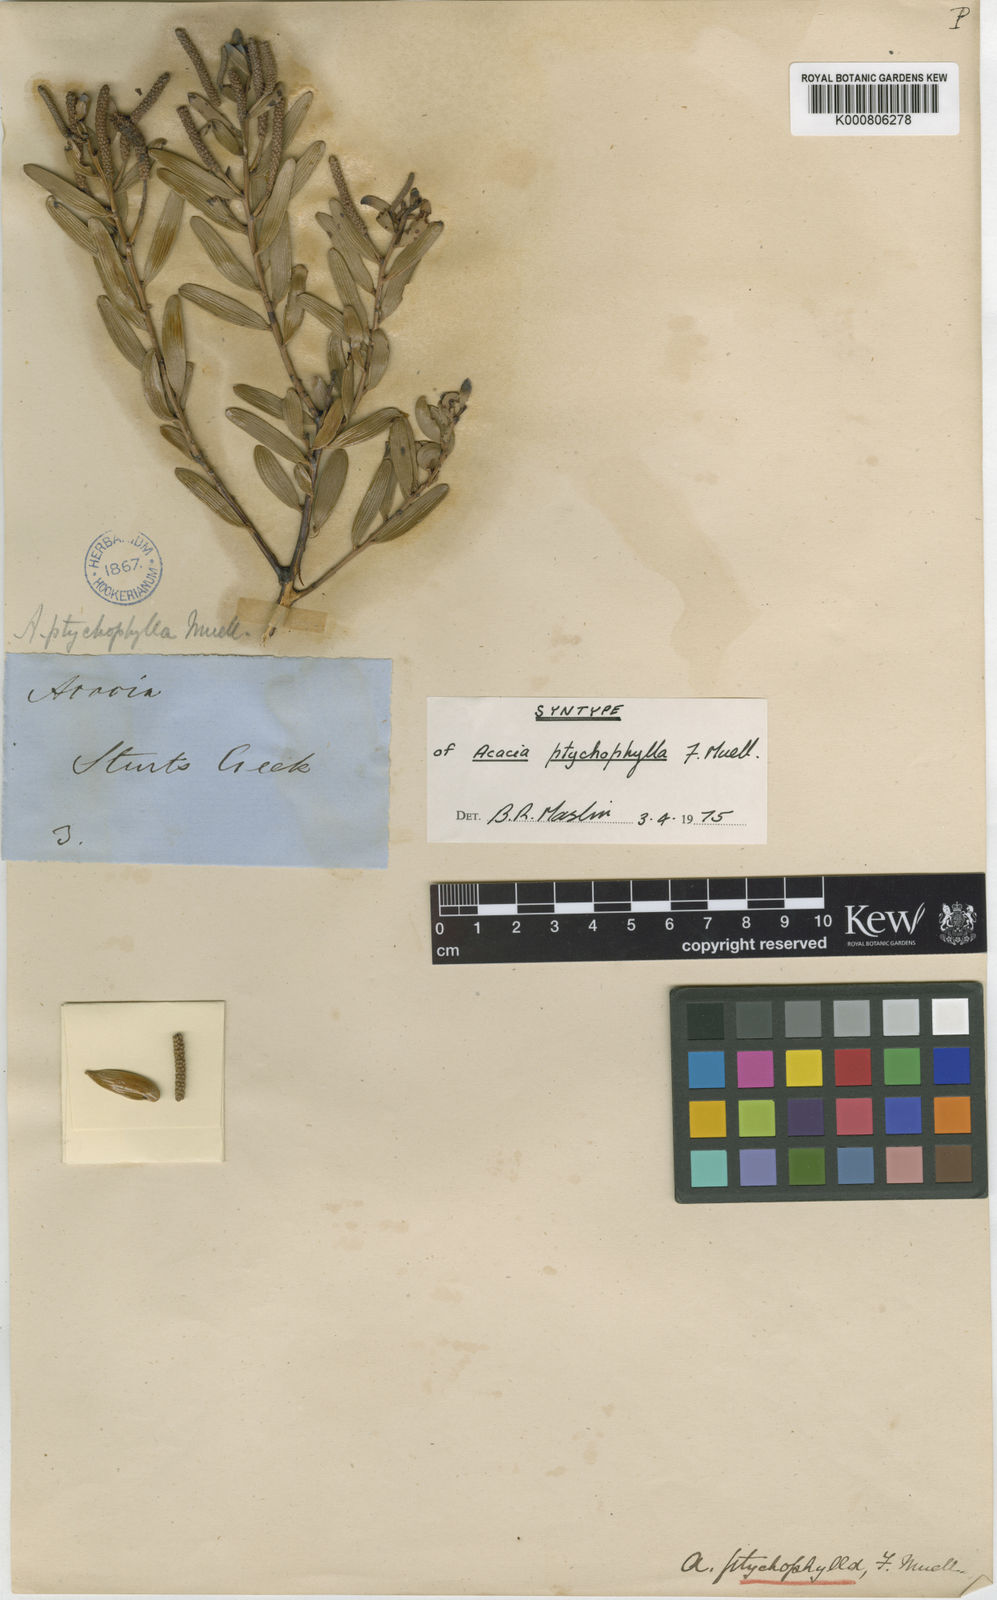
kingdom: Plantae
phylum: Tracheophyta
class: Magnoliopsida
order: Fabales
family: Fabaceae
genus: Acacia
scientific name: Acacia ptychophylla
